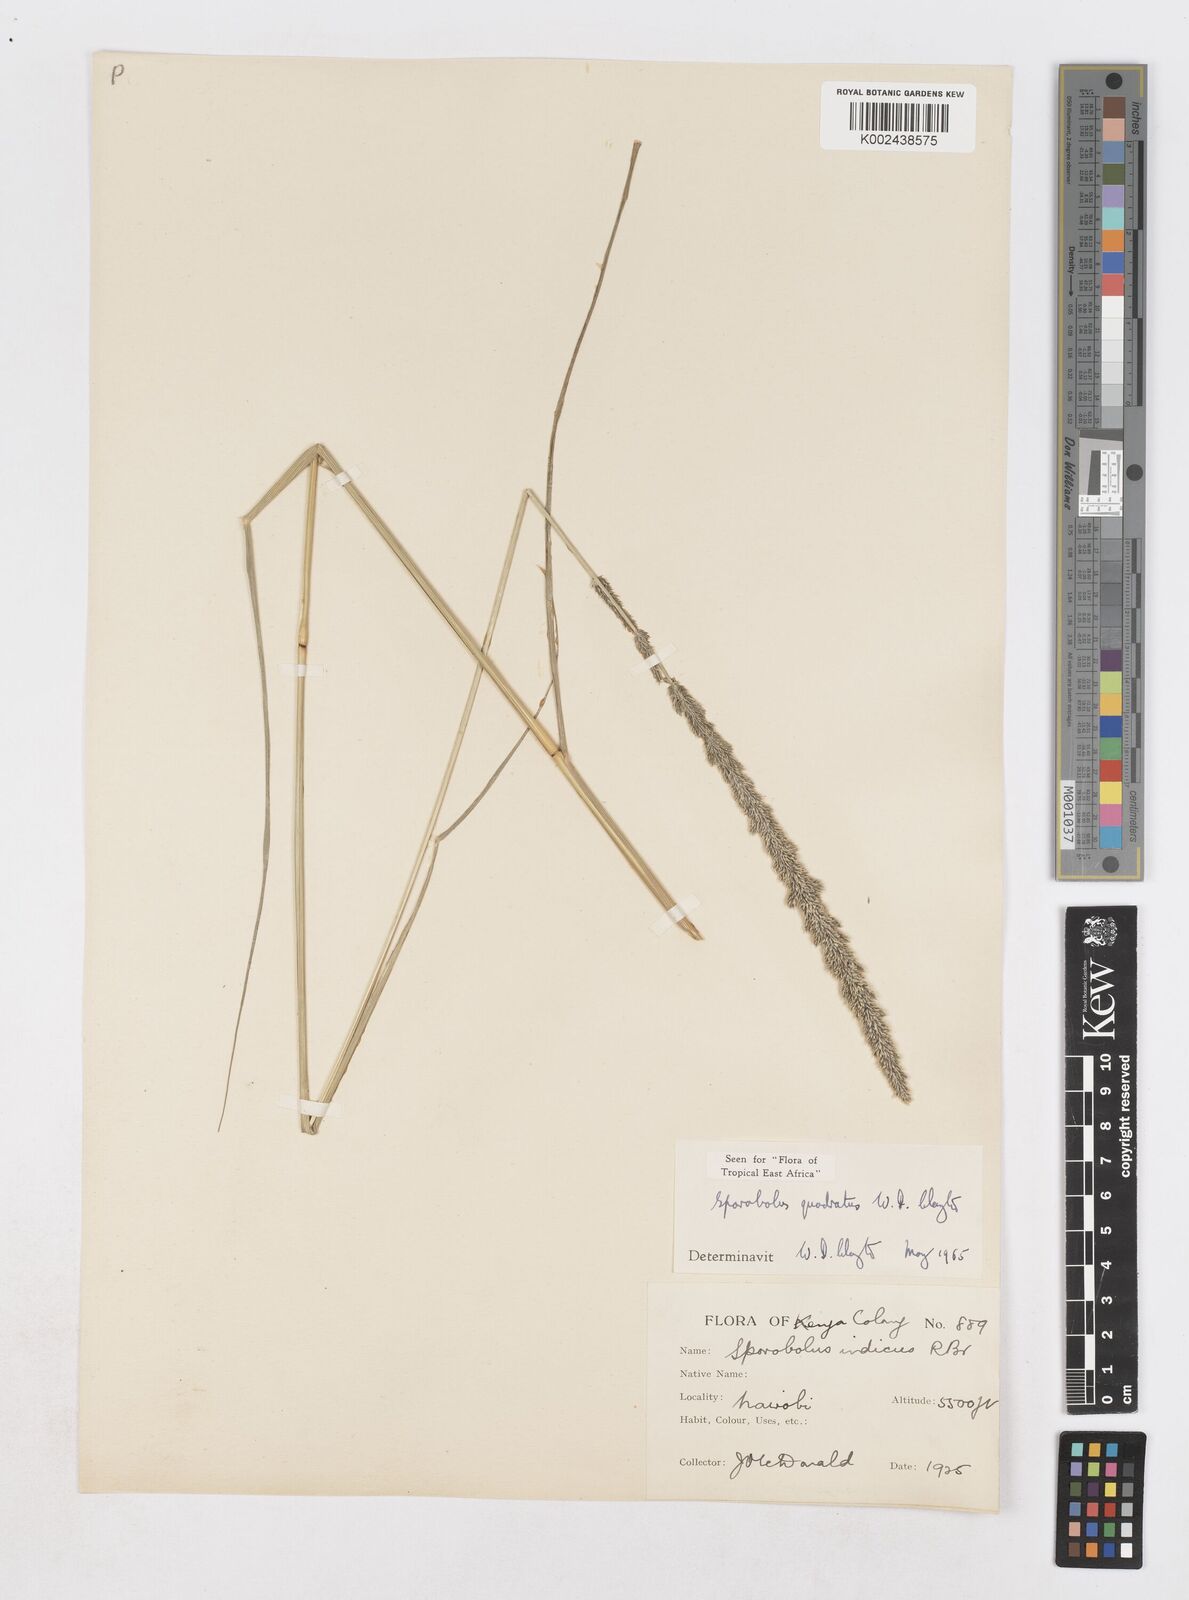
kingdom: Plantae
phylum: Tracheophyta
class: Liliopsida
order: Poales
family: Poaceae
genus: Sporobolus
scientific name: Sporobolus quadratus
